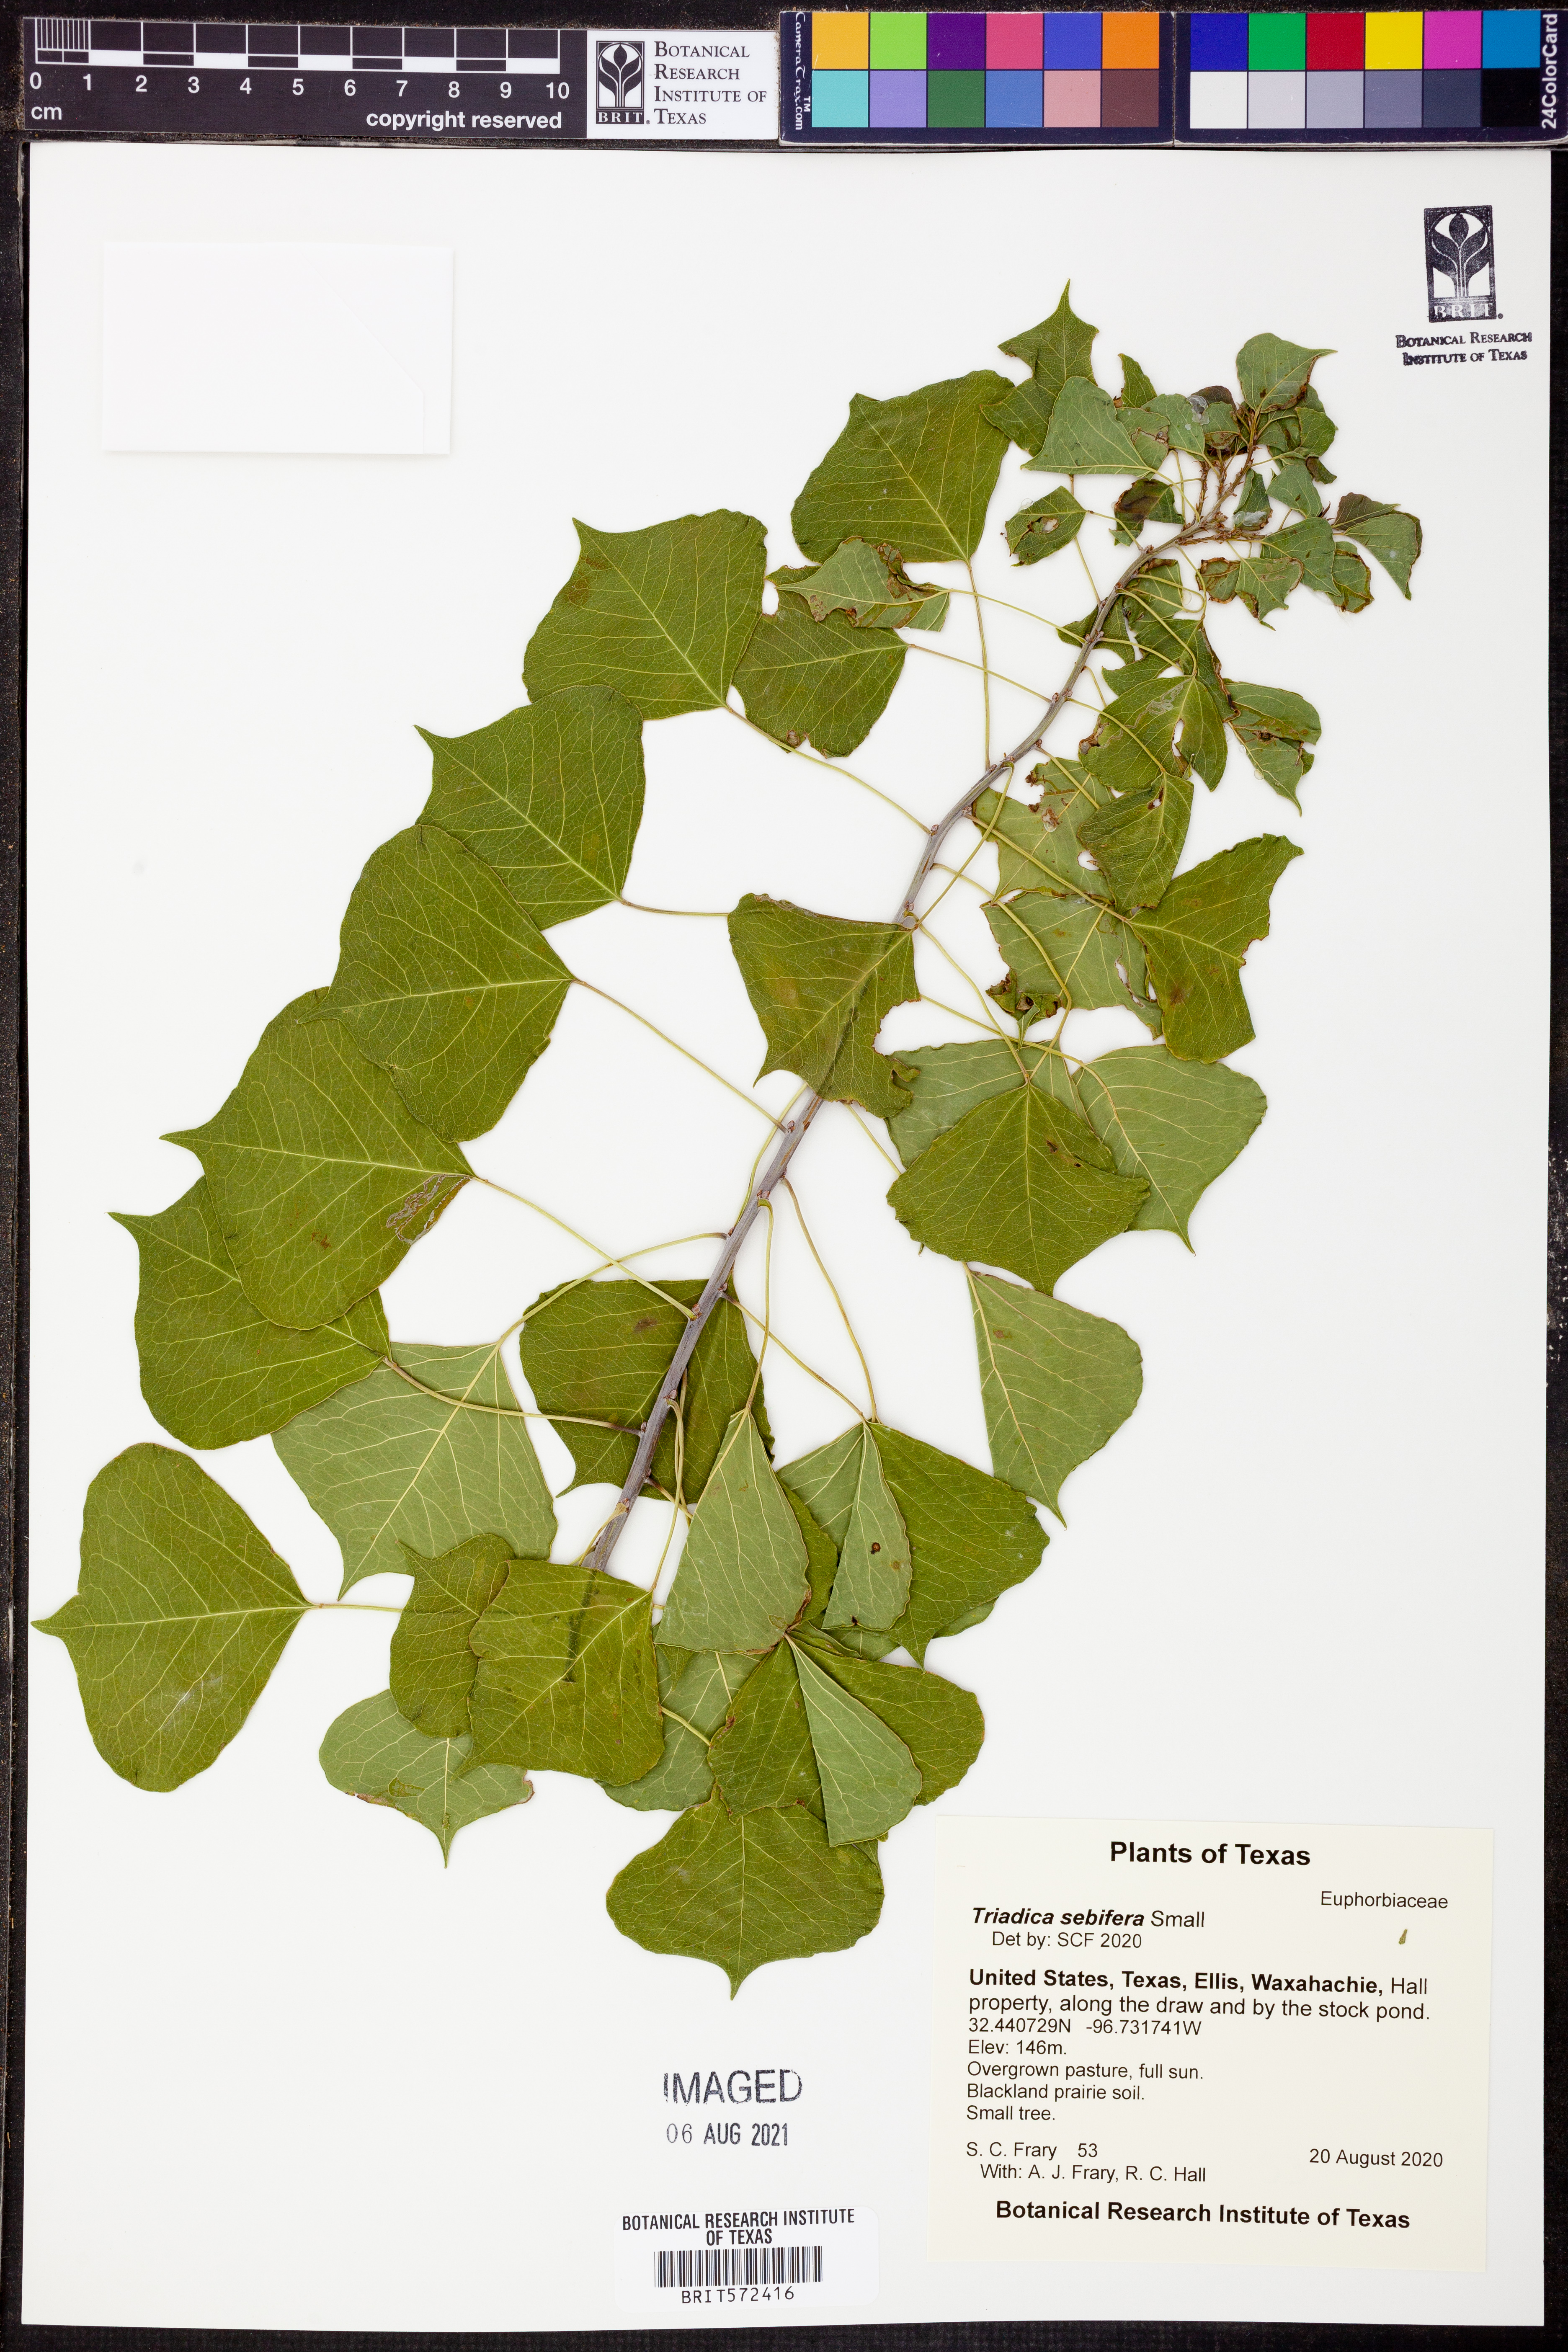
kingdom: Plantae
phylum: Tracheophyta
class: Magnoliopsida
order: Malpighiales
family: Euphorbiaceae
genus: Triadica
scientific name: Triadica sebifera
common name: Chinese tallow
